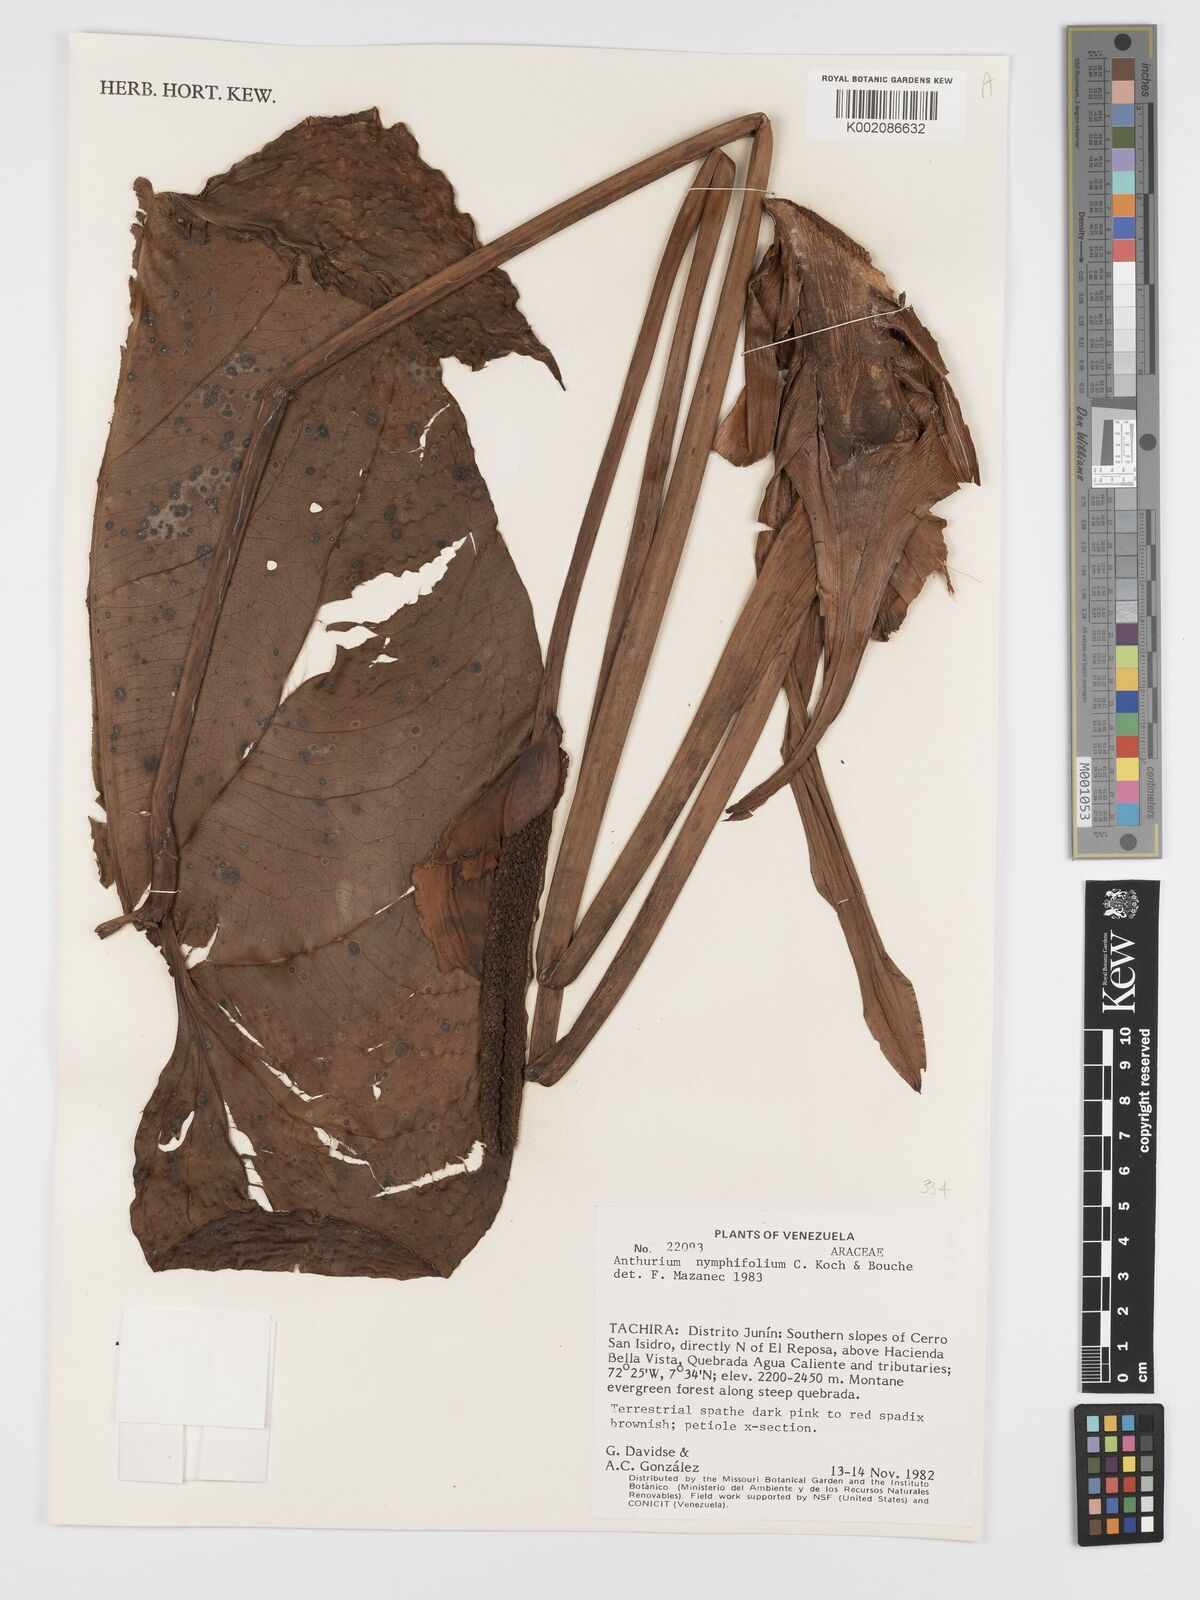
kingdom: Plantae
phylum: Tracheophyta
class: Liliopsida
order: Alismatales
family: Araceae
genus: Anthurium
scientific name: Anthurium nymphaeifolium
